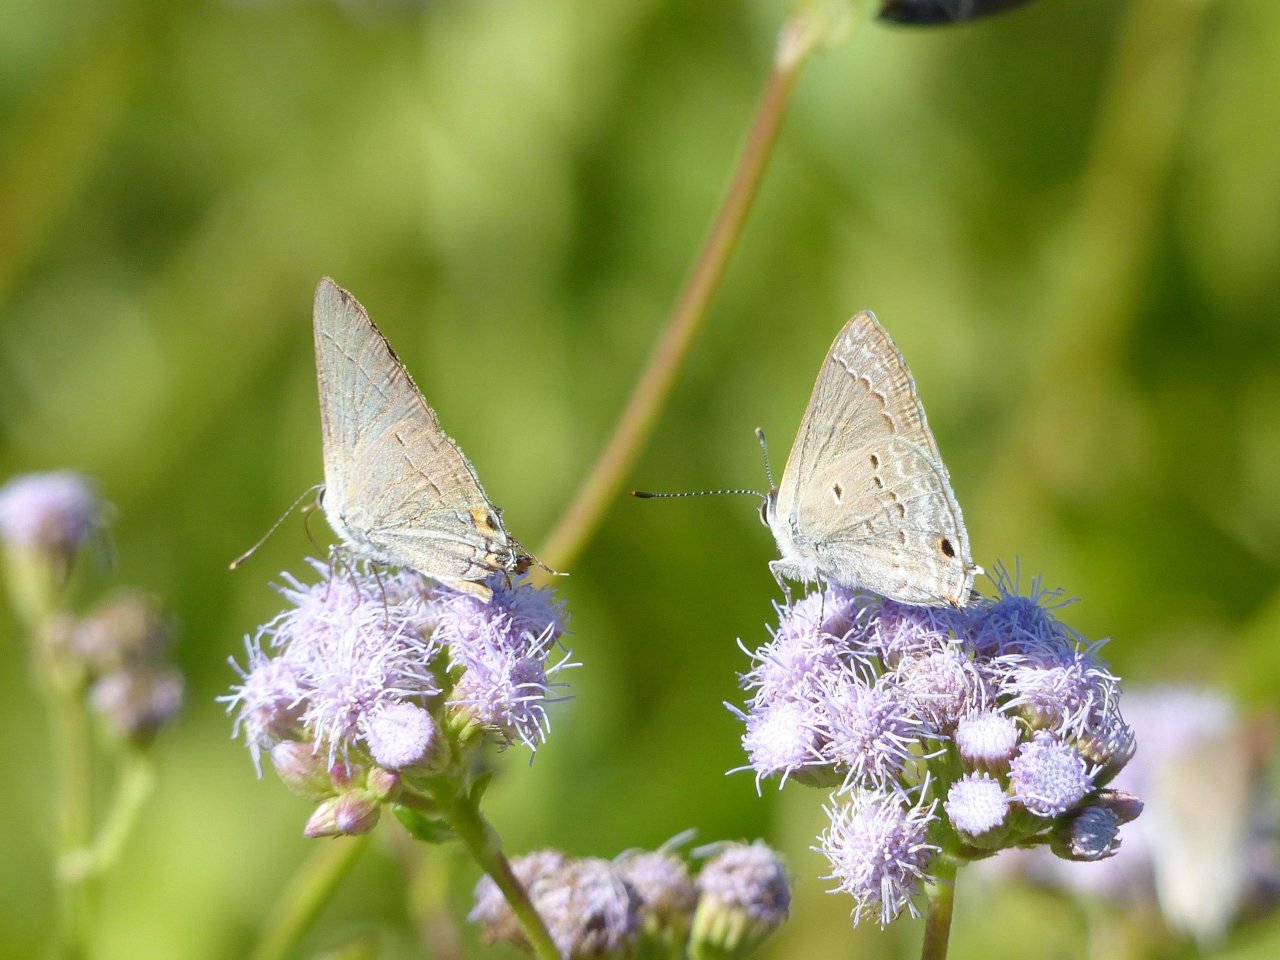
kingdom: Animalia
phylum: Arthropoda
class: Insecta
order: Lepidoptera
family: Lycaenidae
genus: Strymon
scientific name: Strymon melinus
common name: Gray Hairstreak
